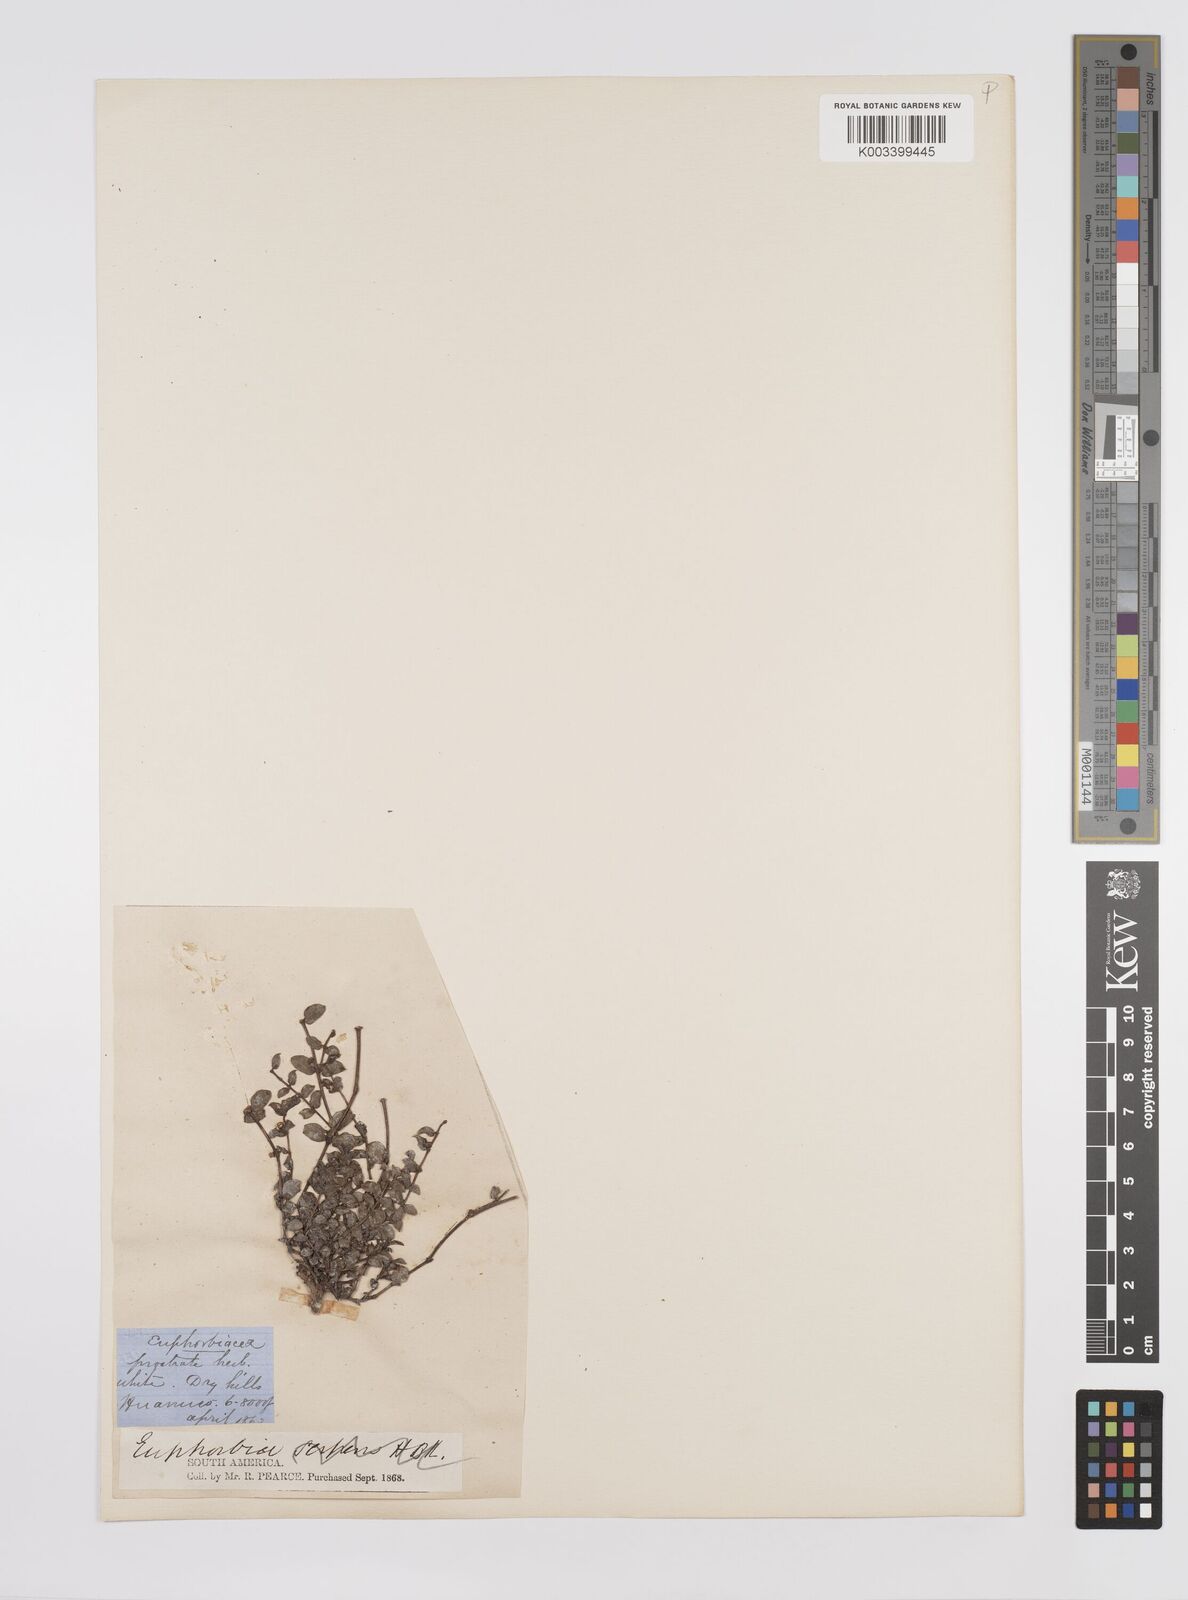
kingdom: Plantae
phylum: Tracheophyta
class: Magnoliopsida
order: Malpighiales
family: Euphorbiaceae
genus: Euphorbia
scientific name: Euphorbia
